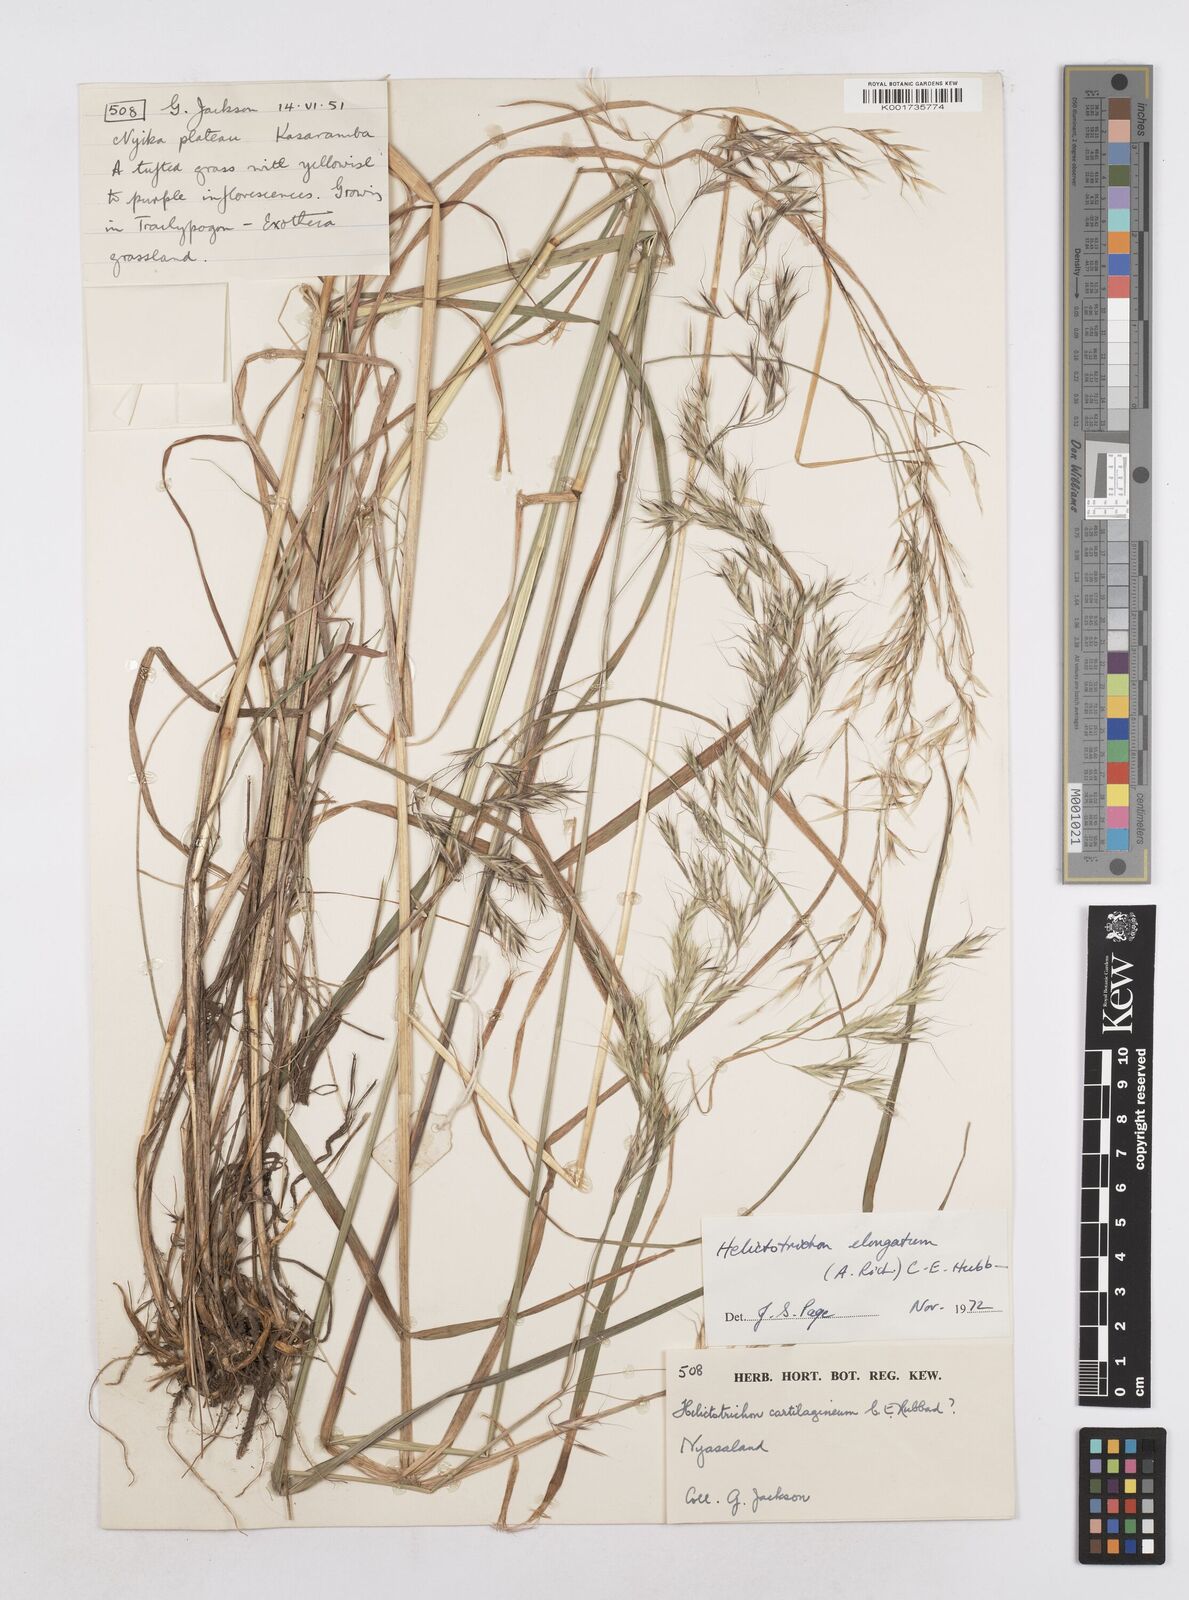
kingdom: Plantae
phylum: Tracheophyta
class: Liliopsida
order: Poales
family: Poaceae
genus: Trisetopsis
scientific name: Trisetopsis elongata
